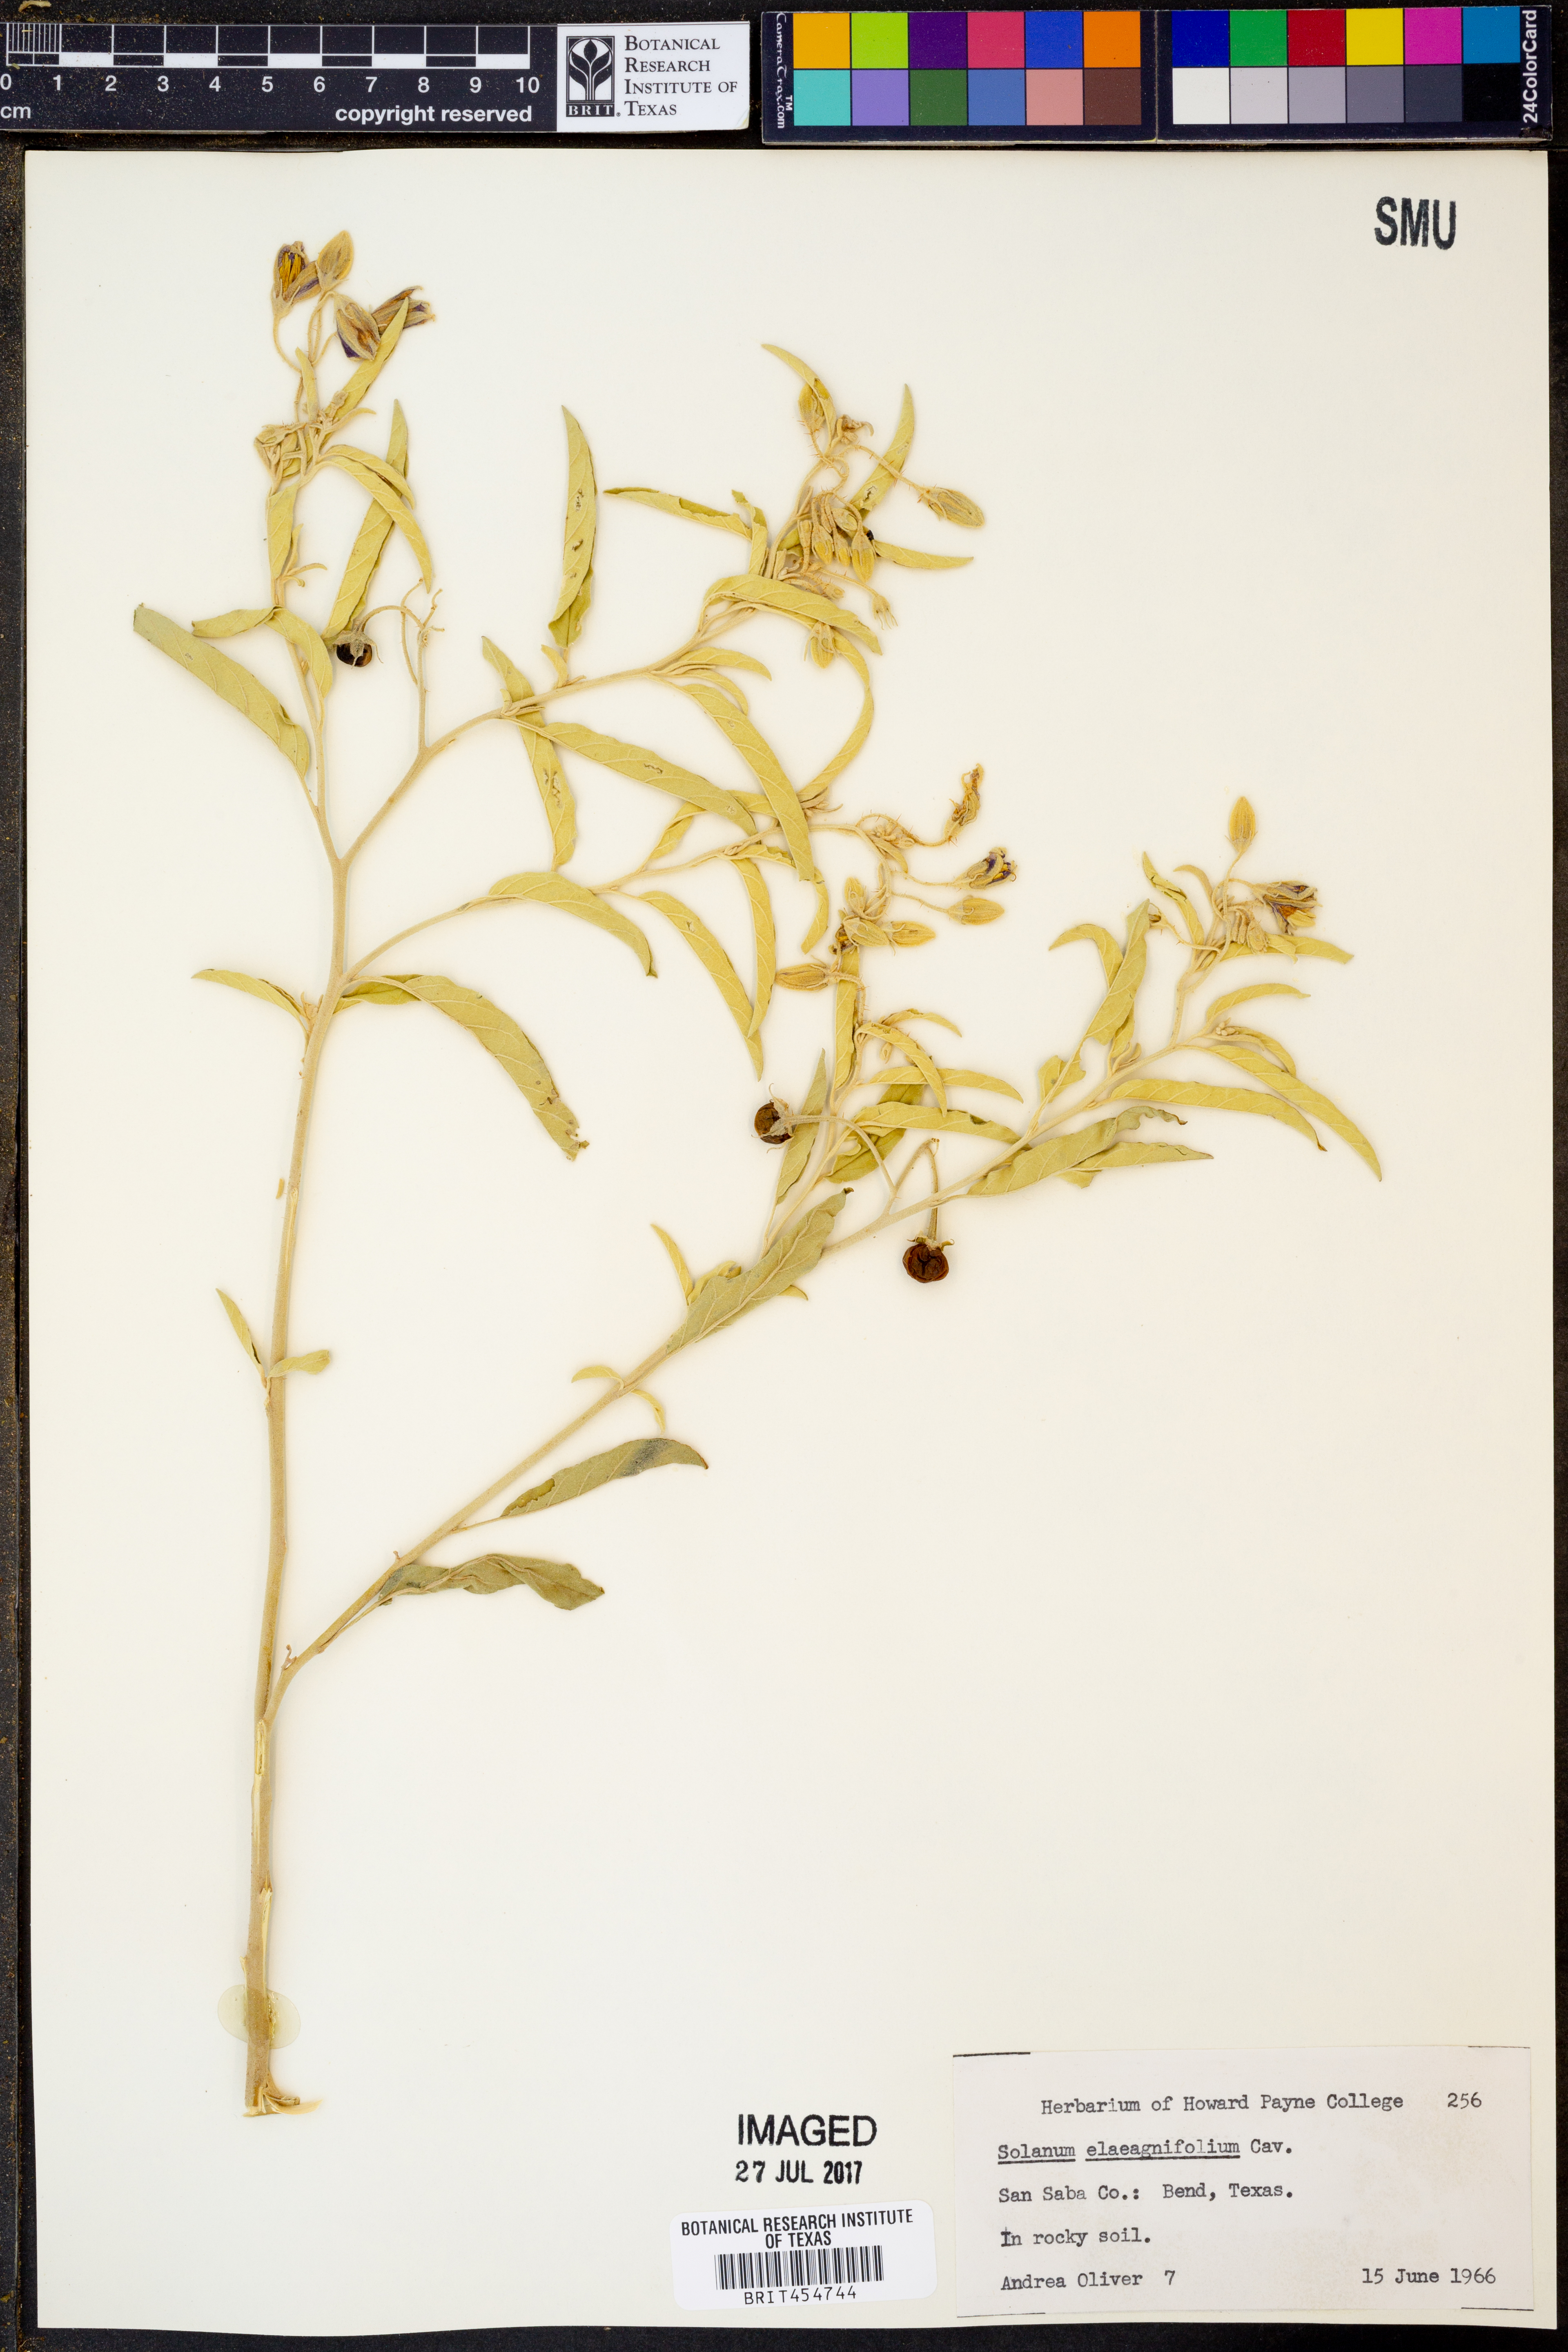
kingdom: Plantae
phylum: Tracheophyta
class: Magnoliopsida
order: Solanales
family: Solanaceae
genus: Solanum
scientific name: Solanum elaeagnifolium
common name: Silverleaf nightshade
